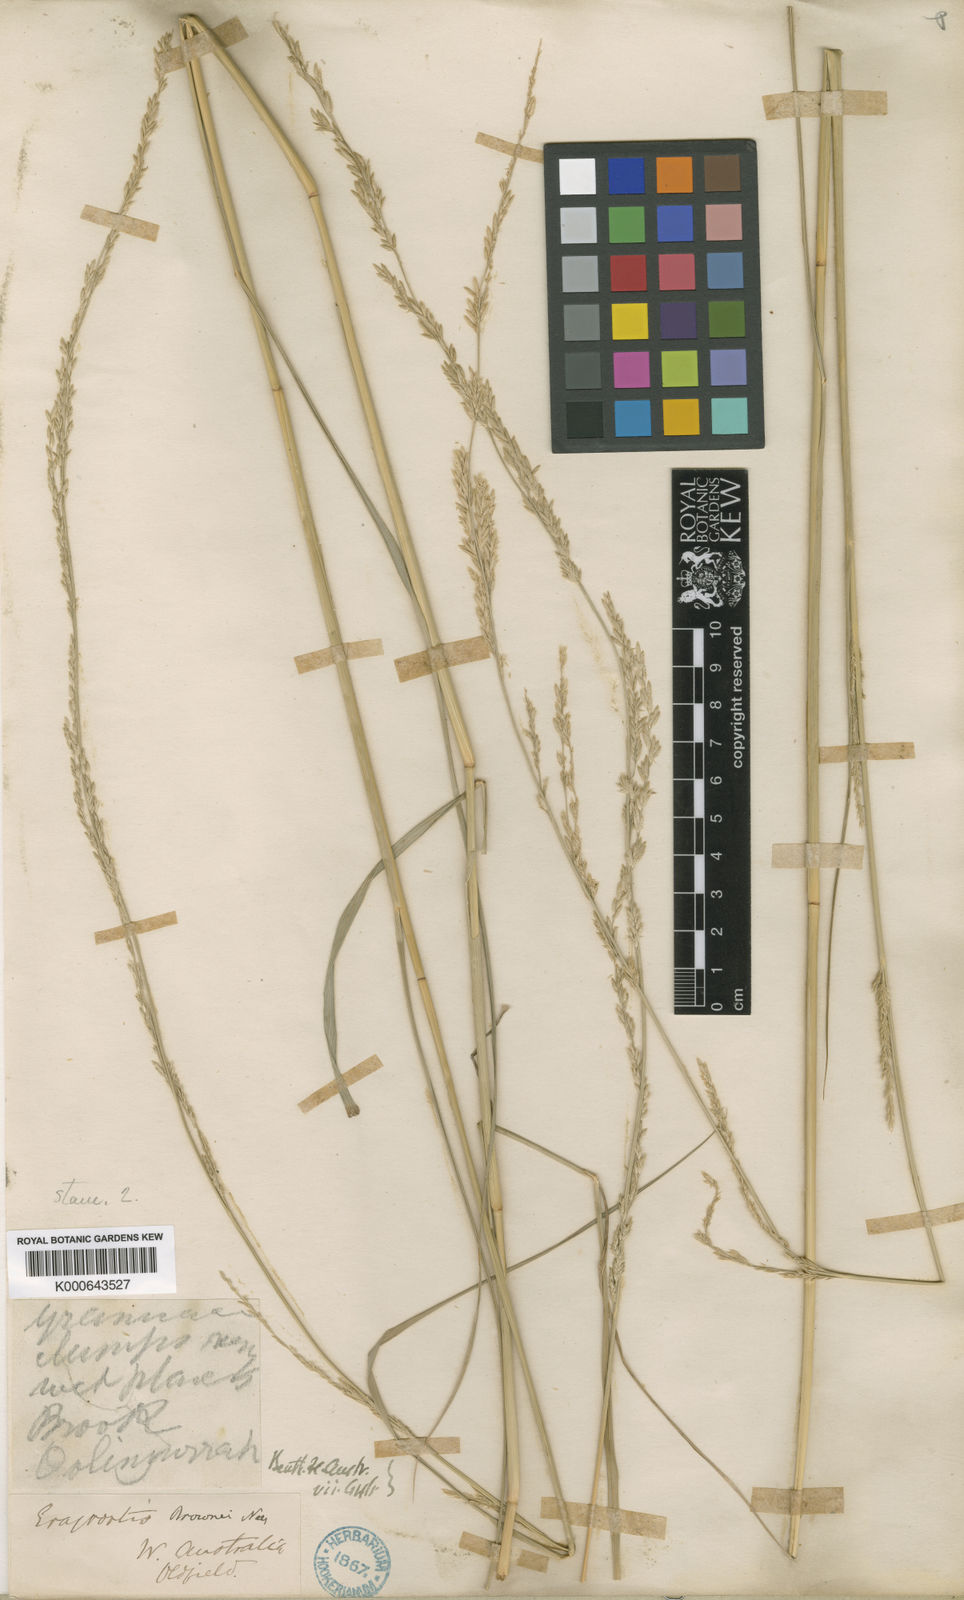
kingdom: Plantae
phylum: Tracheophyta
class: Liliopsida
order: Poales
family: Poaceae
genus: Eragrostis
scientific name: Eragrostis speciosa
